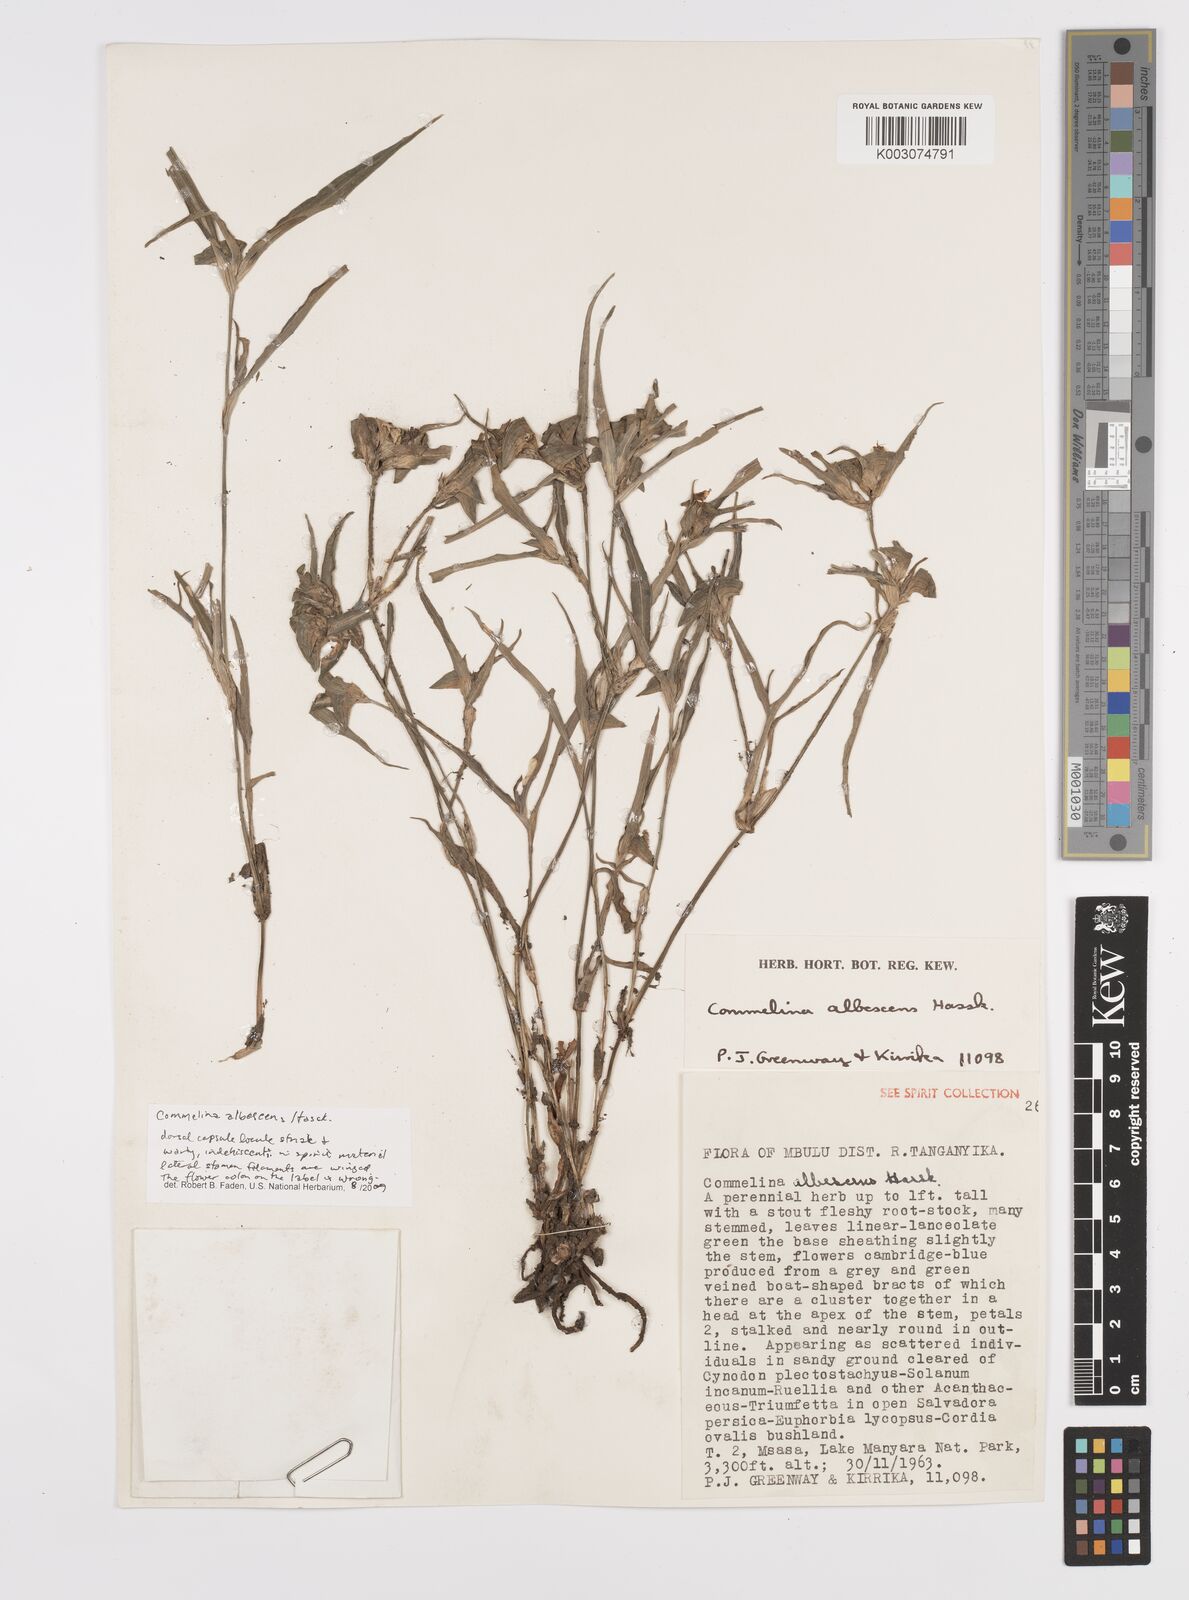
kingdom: Plantae
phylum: Tracheophyta
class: Liliopsida
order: Commelinales
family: Commelinaceae
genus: Commelina
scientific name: Commelina albescens
